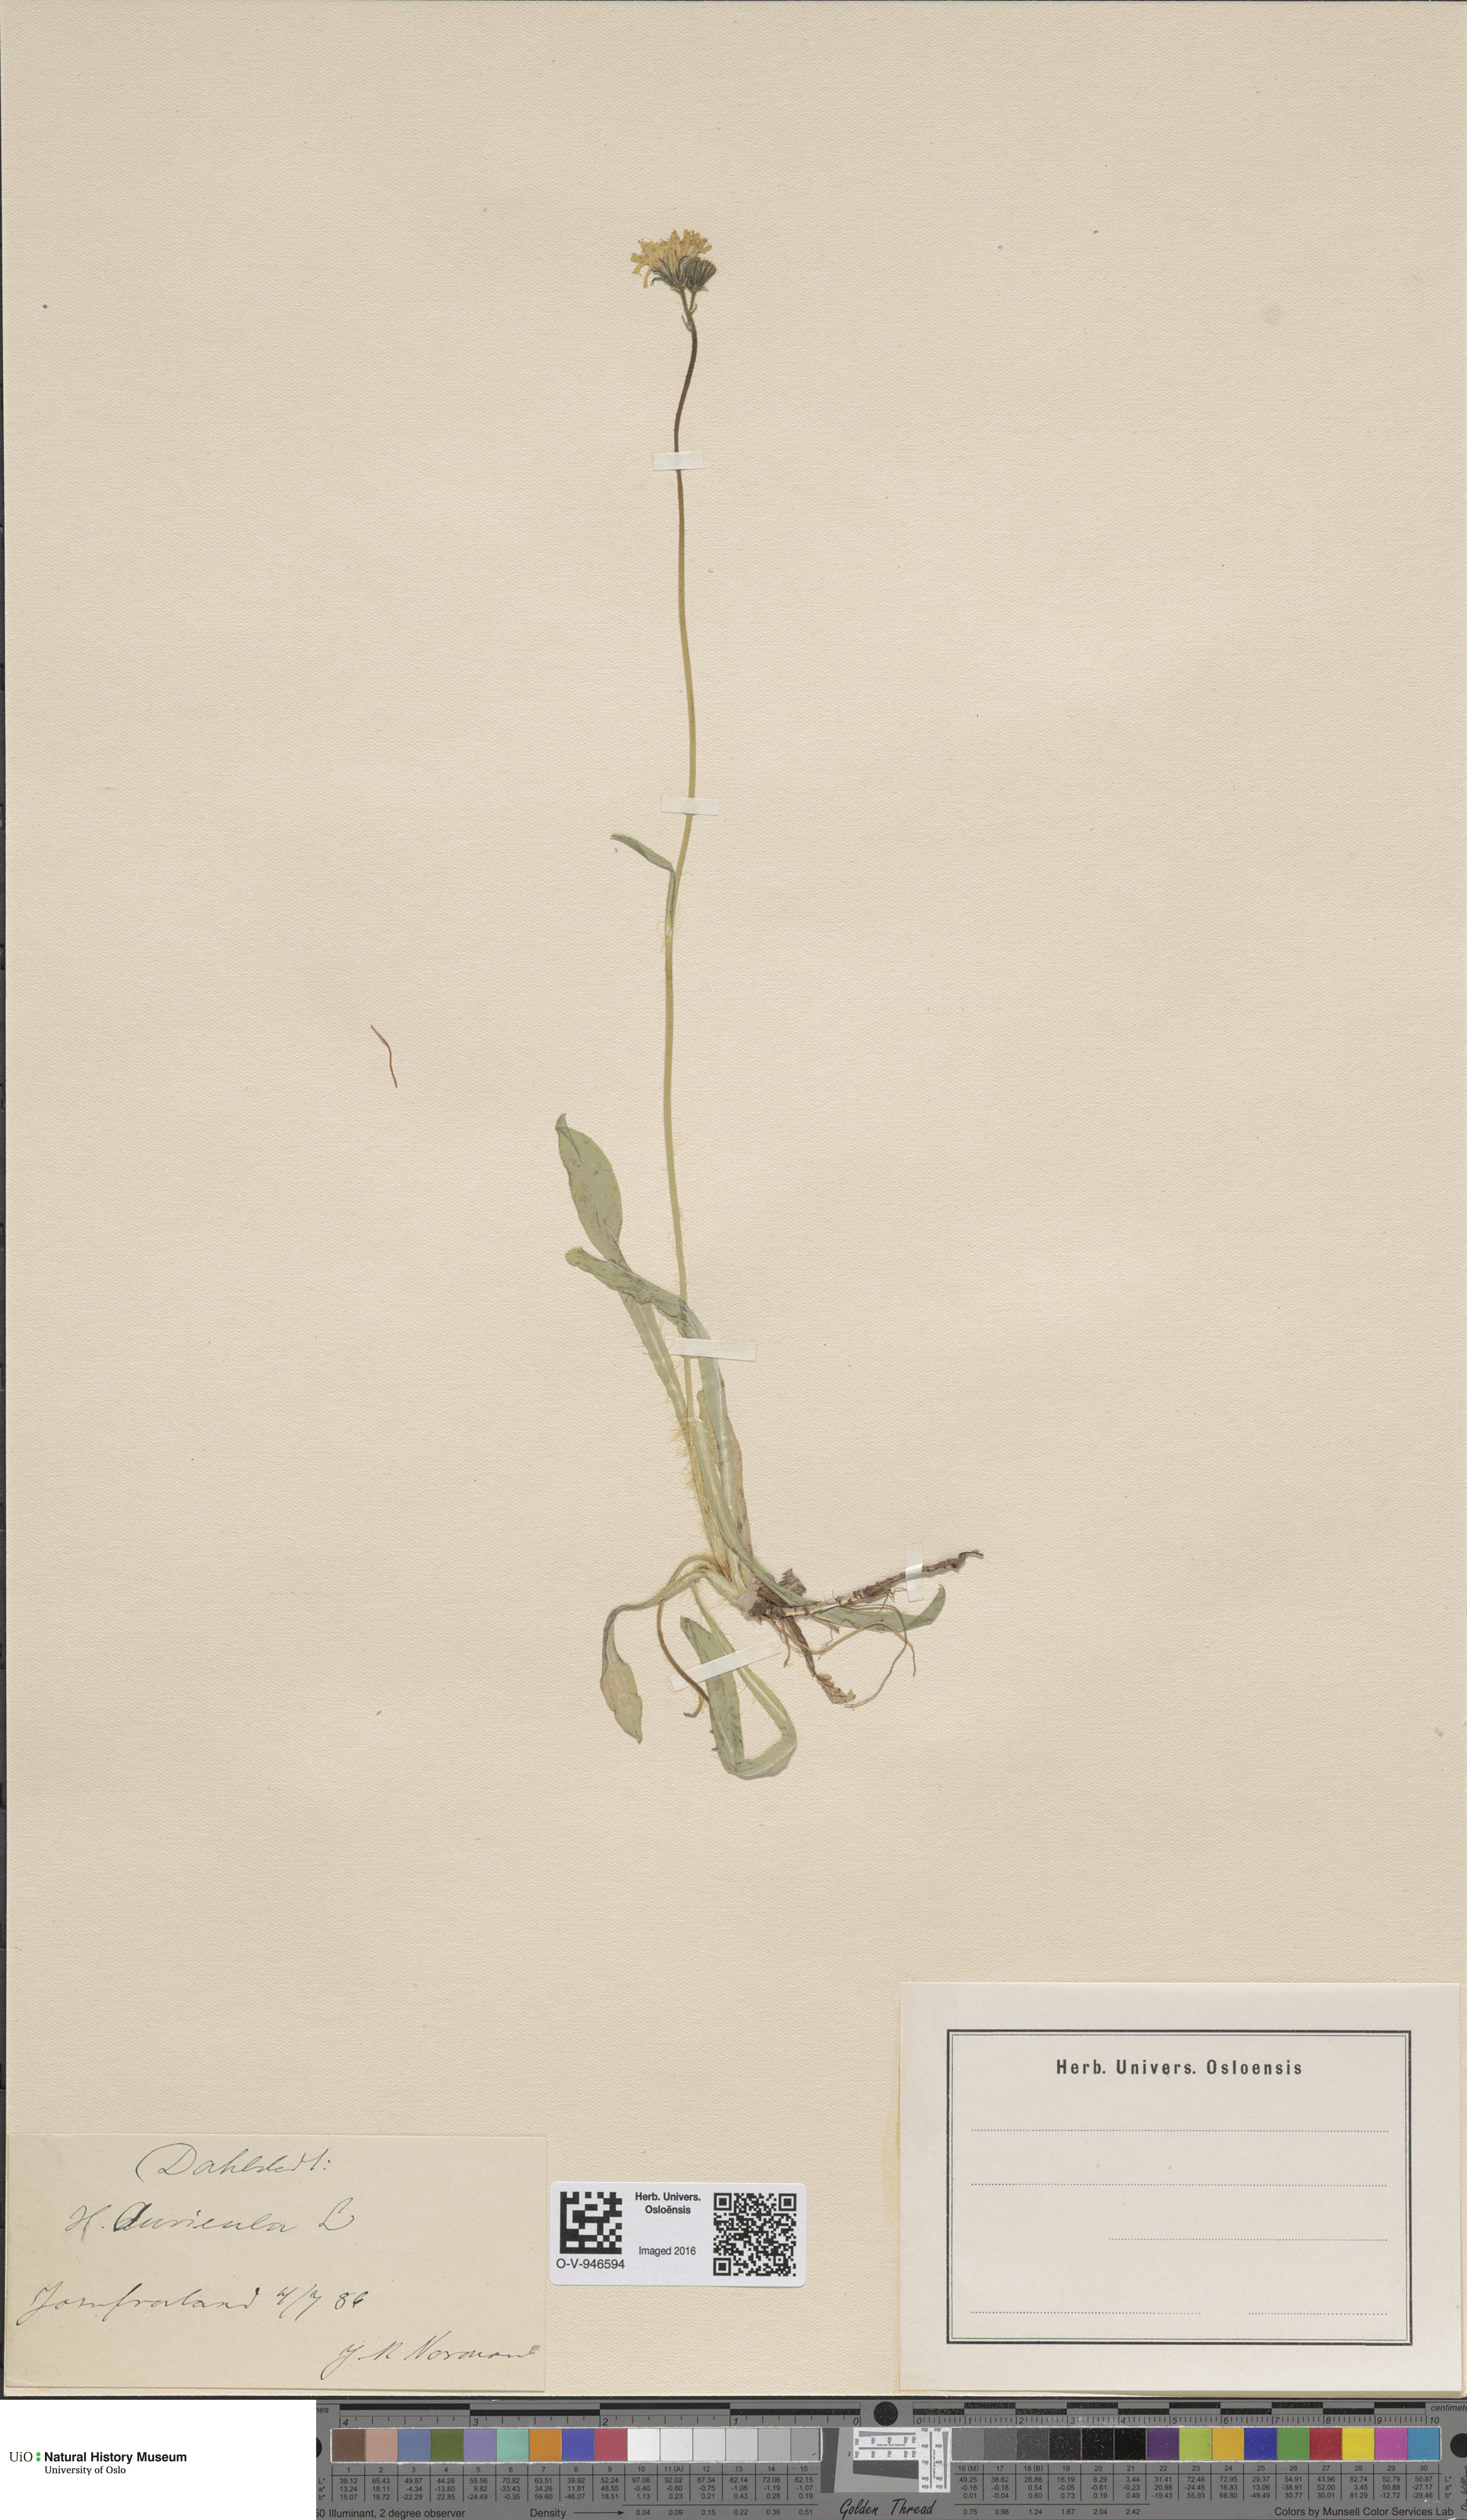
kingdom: Plantae
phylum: Tracheophyta
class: Magnoliopsida
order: Asterales
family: Asteraceae
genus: Pilosella
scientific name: Pilosella lactucella
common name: Glaucous fox-and-cubs
